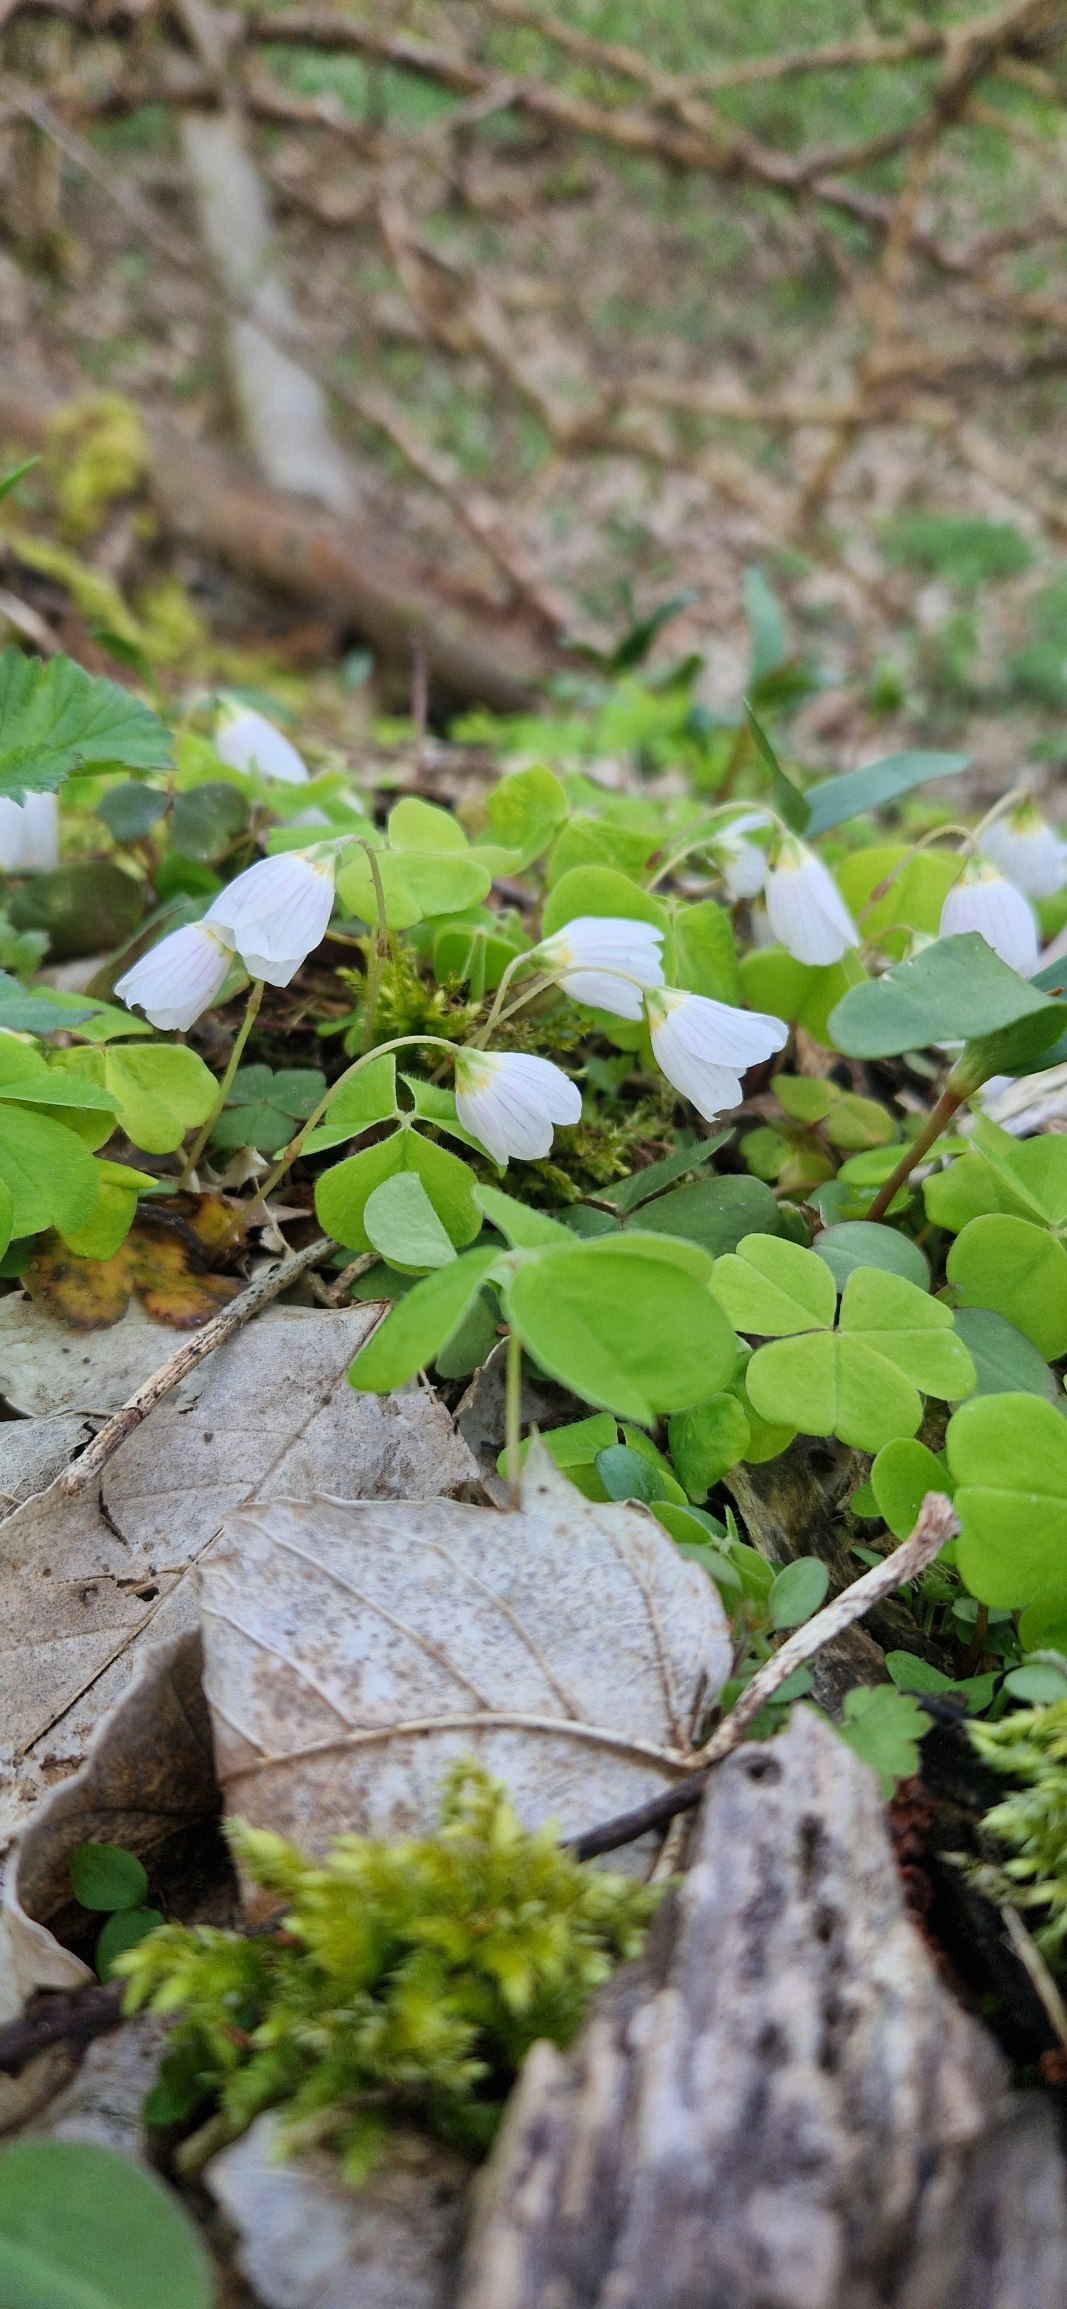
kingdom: Plantae
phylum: Tracheophyta
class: Magnoliopsida
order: Oxalidales
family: Oxalidaceae
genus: Oxalis
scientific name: Oxalis acetosella
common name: Skovsyre
